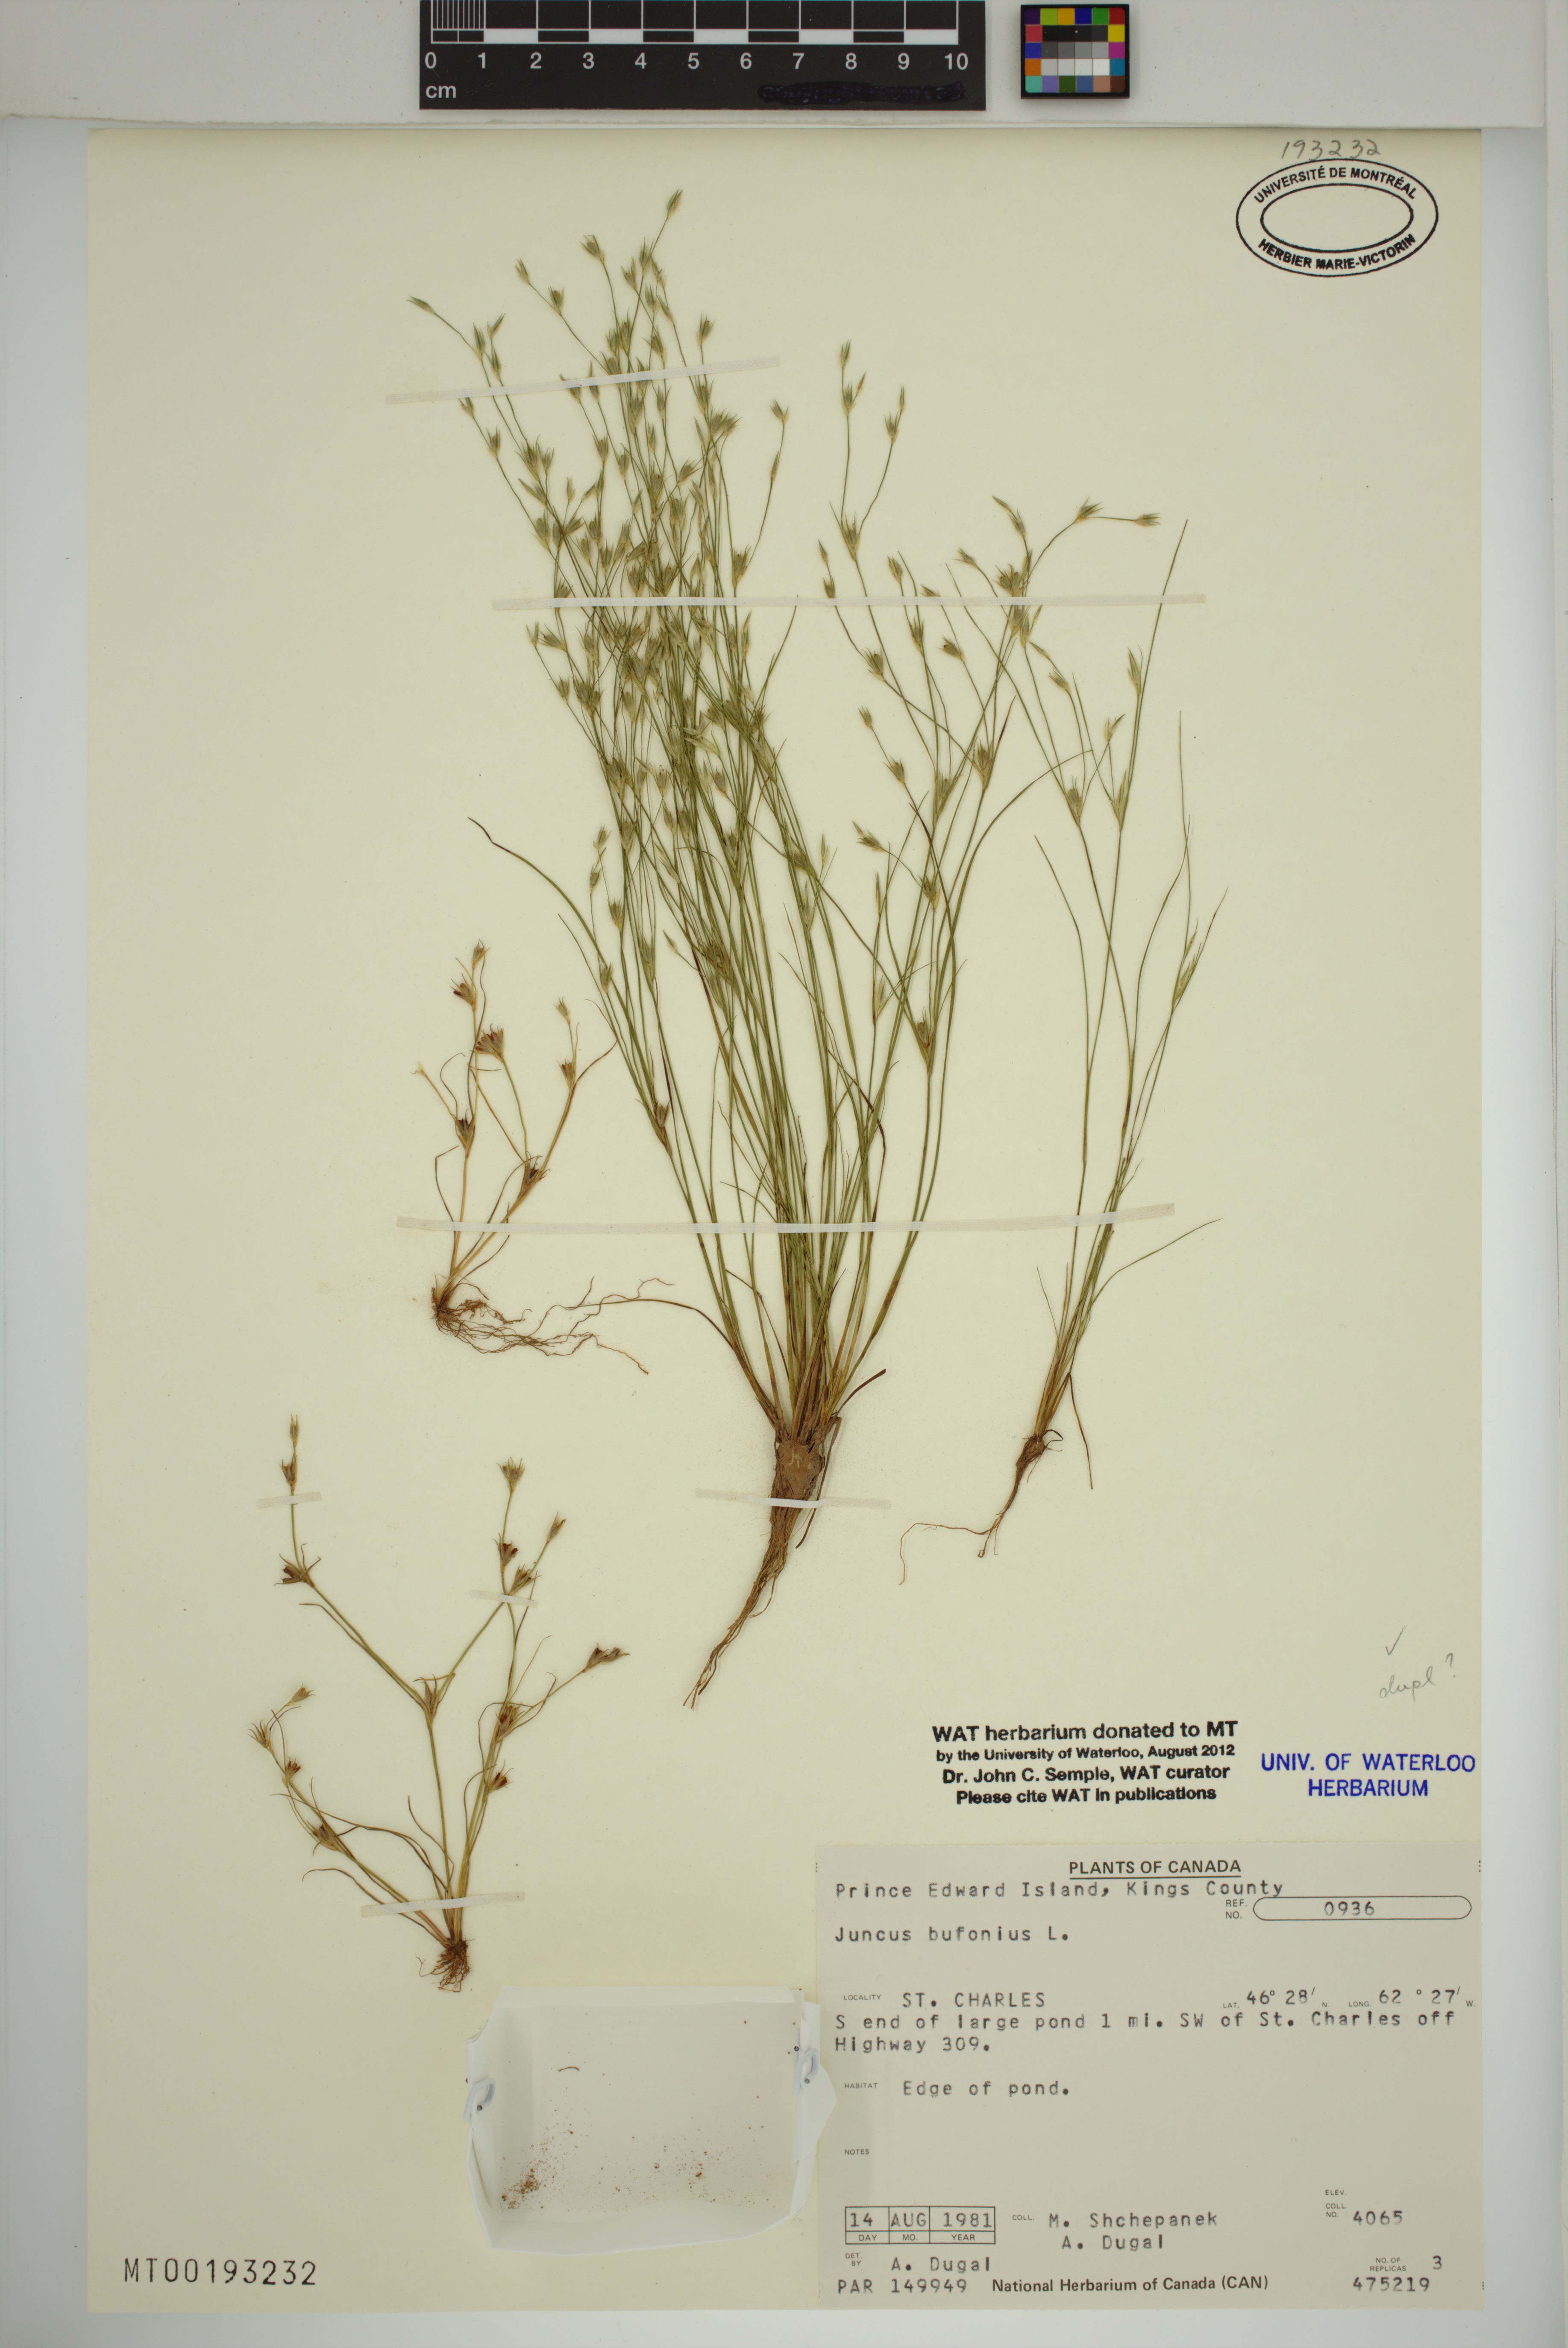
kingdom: Plantae
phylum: Tracheophyta
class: Liliopsida
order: Poales
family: Juncaceae
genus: Juncus
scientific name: Juncus bufonius
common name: Toad rush
